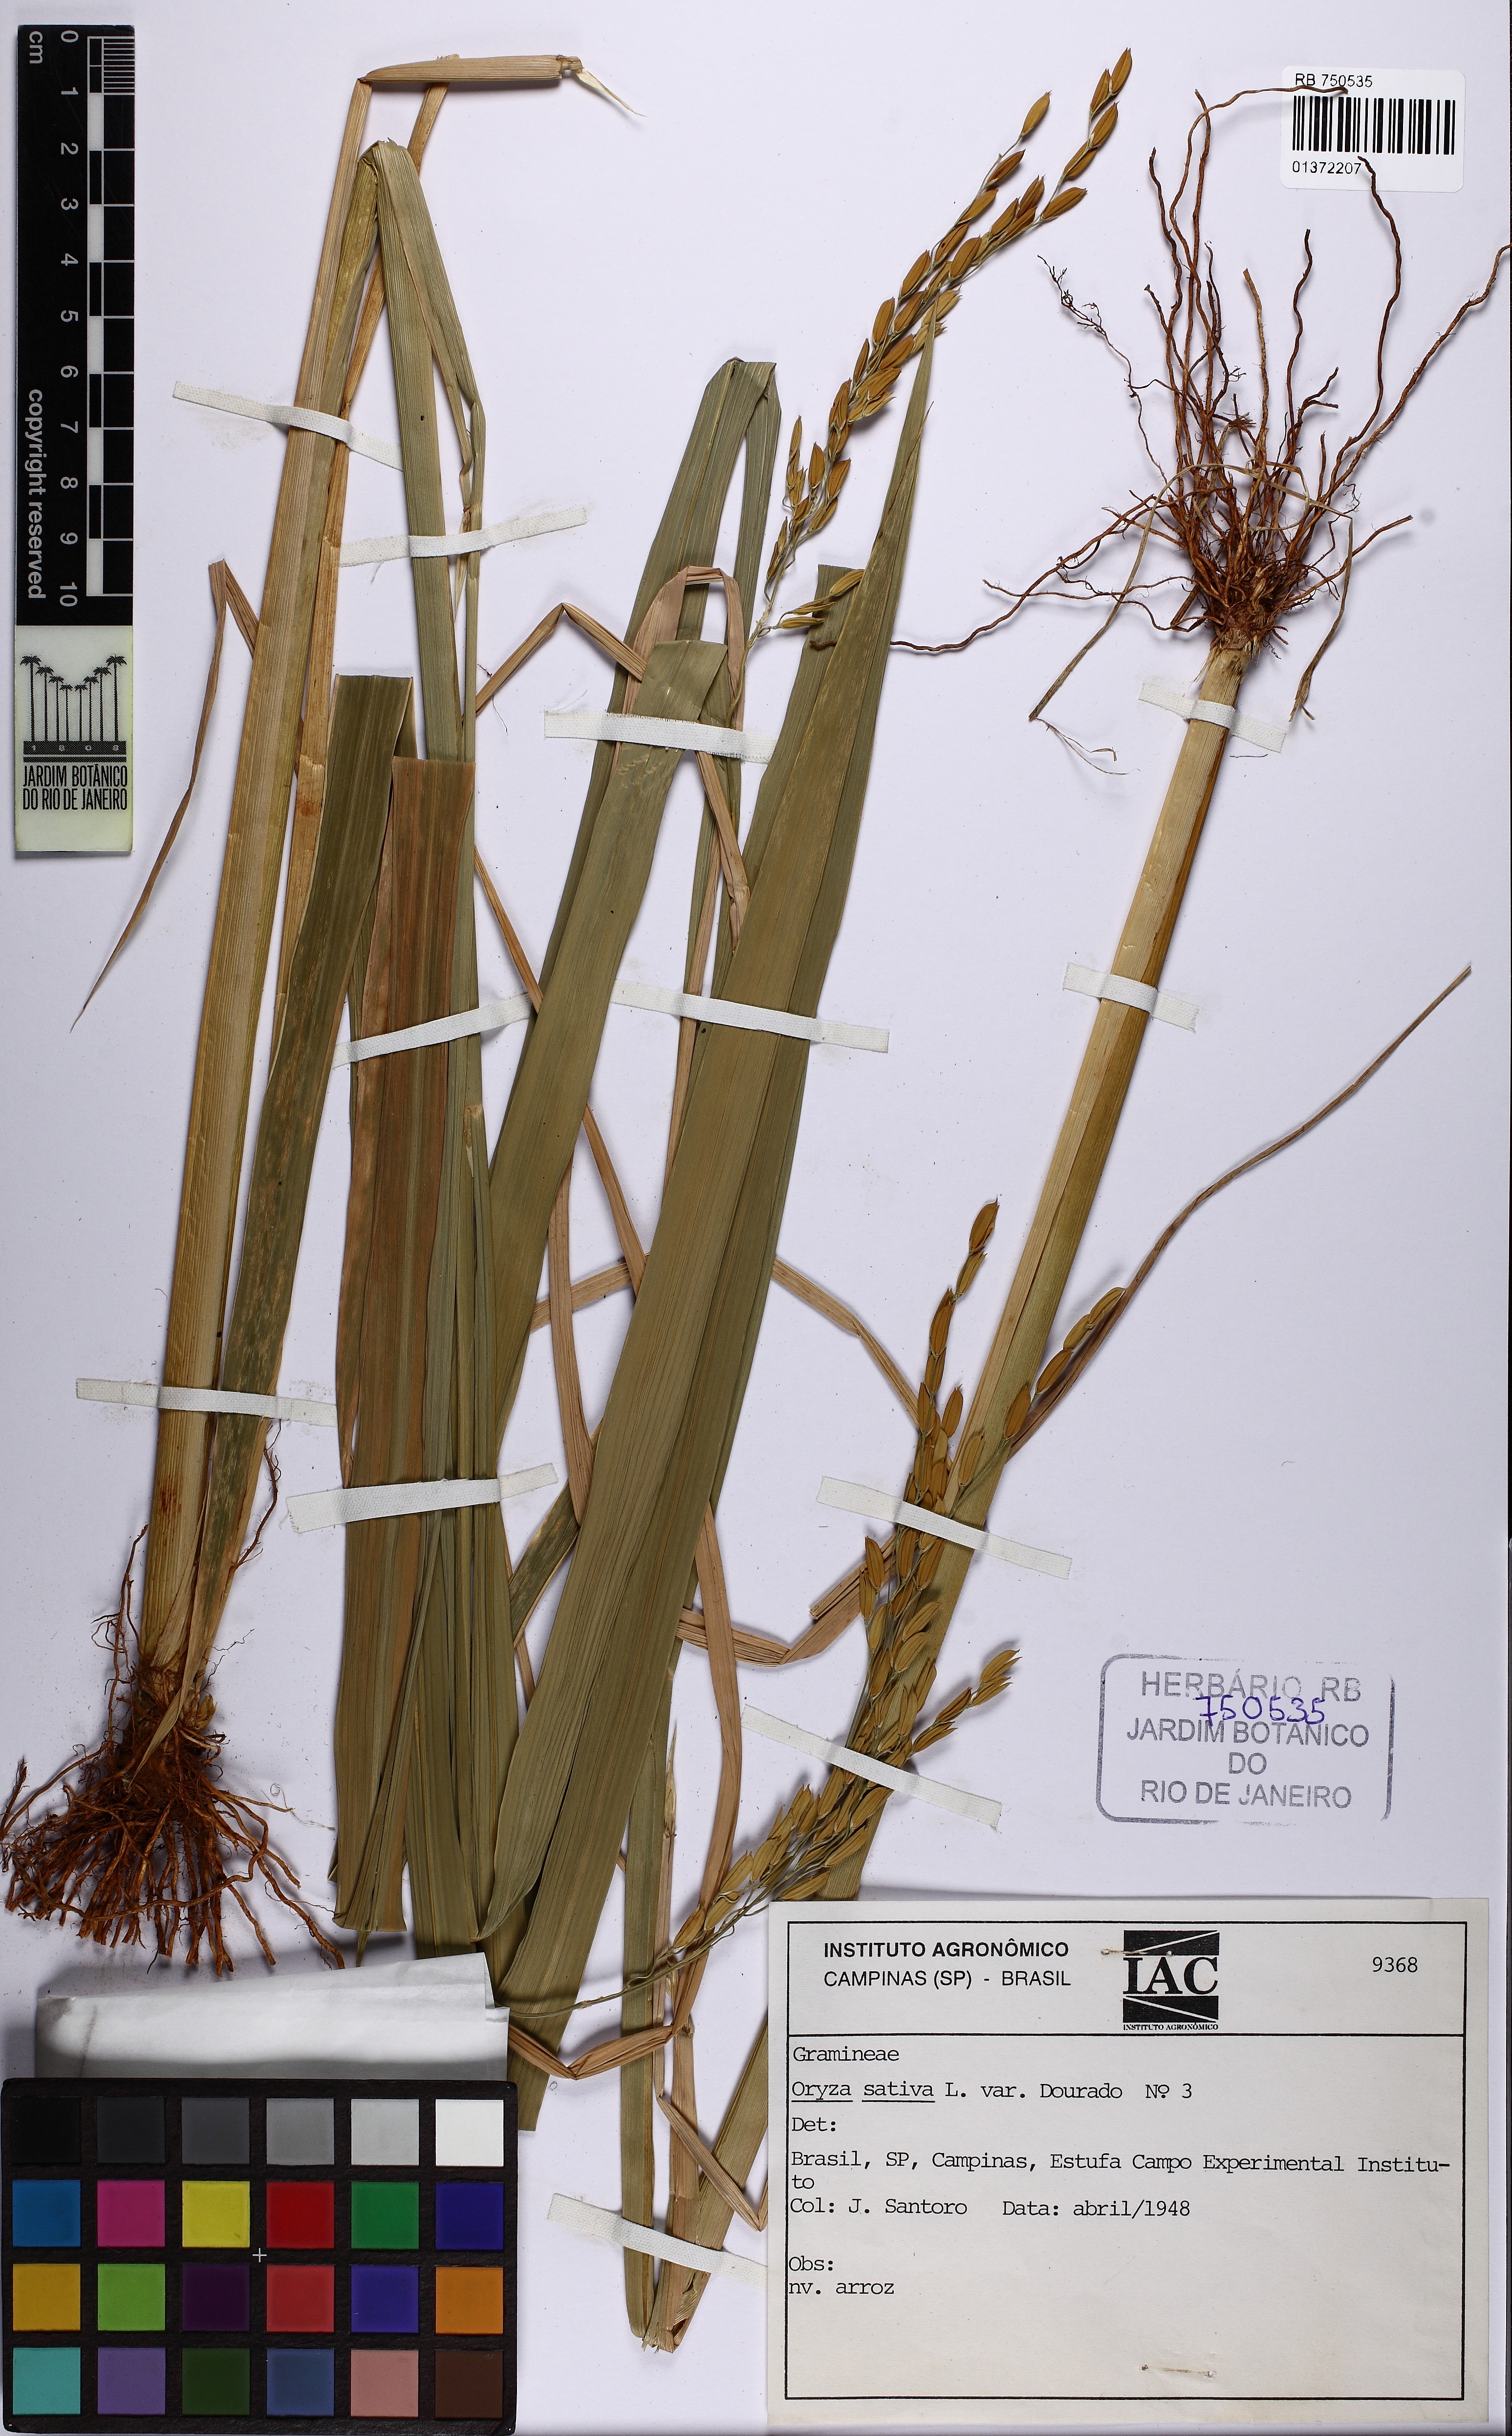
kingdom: Plantae
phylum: Tracheophyta
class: Liliopsida
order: Poales
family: Poaceae
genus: Oryza
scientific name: Oryza sativa
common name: Rice
